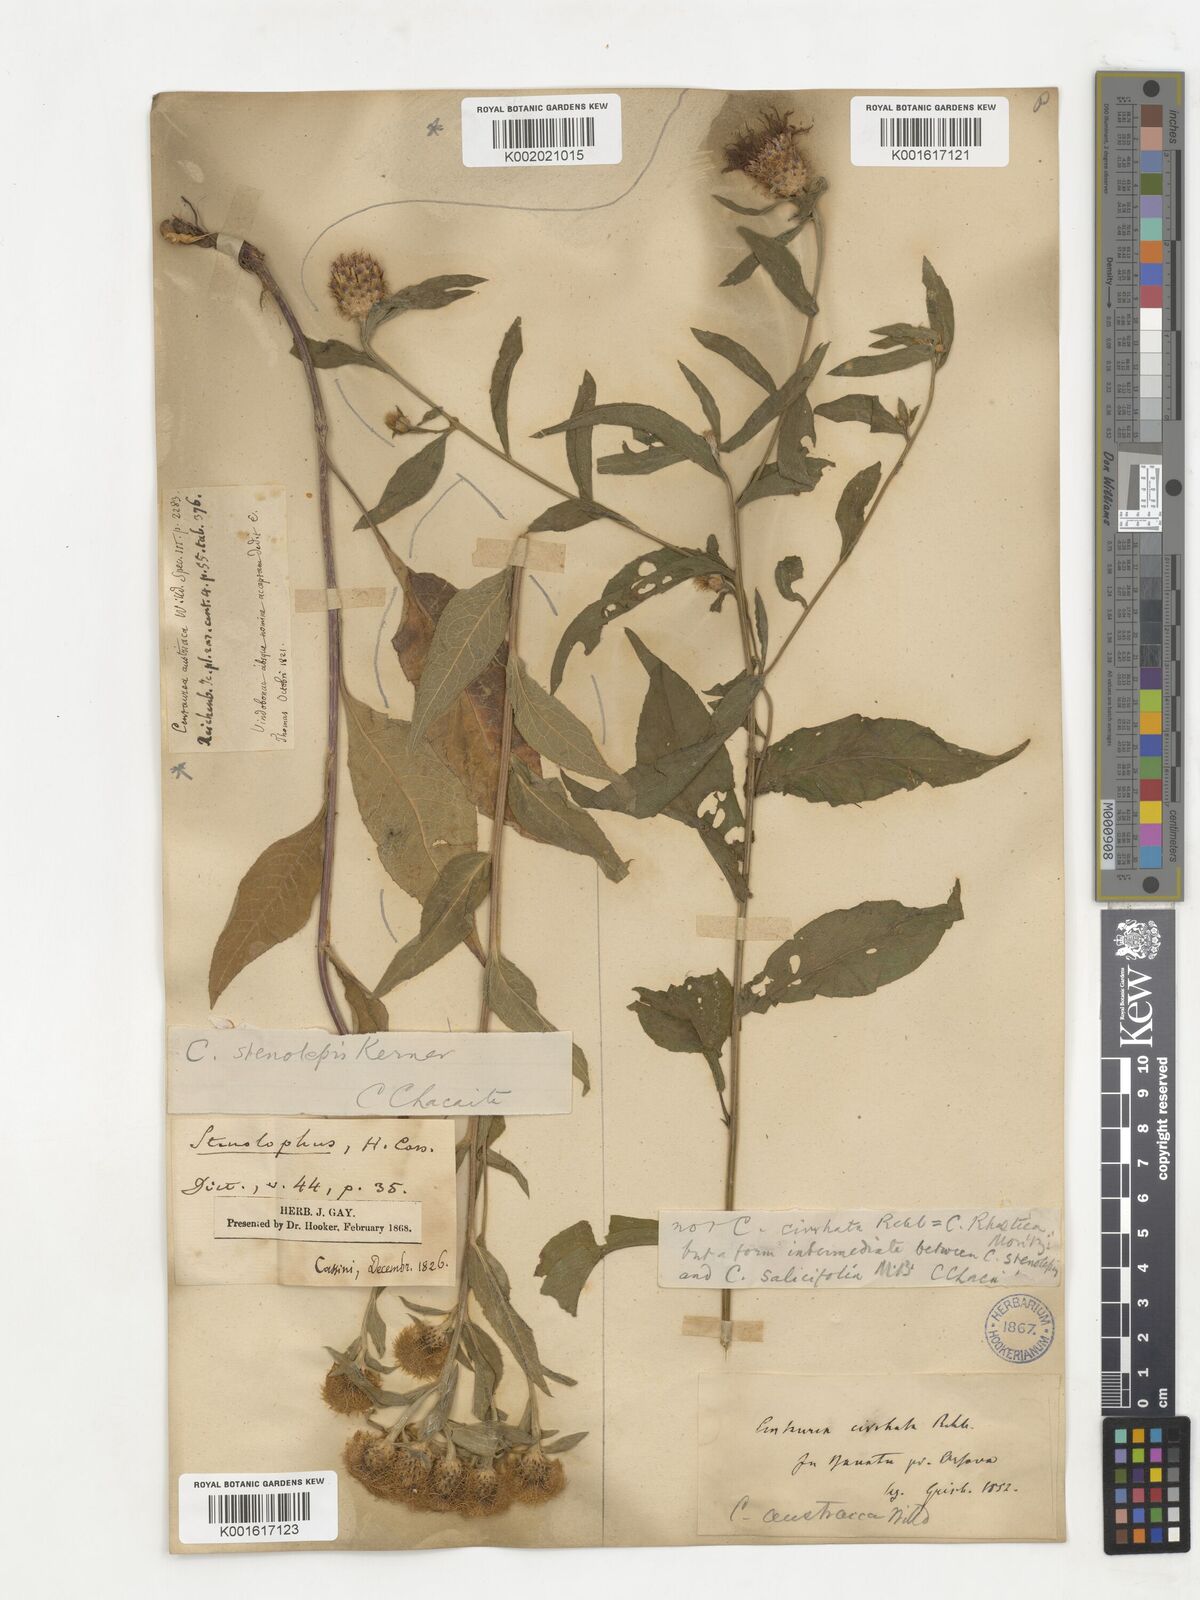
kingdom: Plantae
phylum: Tracheophyta
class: Magnoliopsida
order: Asterales
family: Asteraceae
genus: Centaurea
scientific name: Centaurea stenolepis
